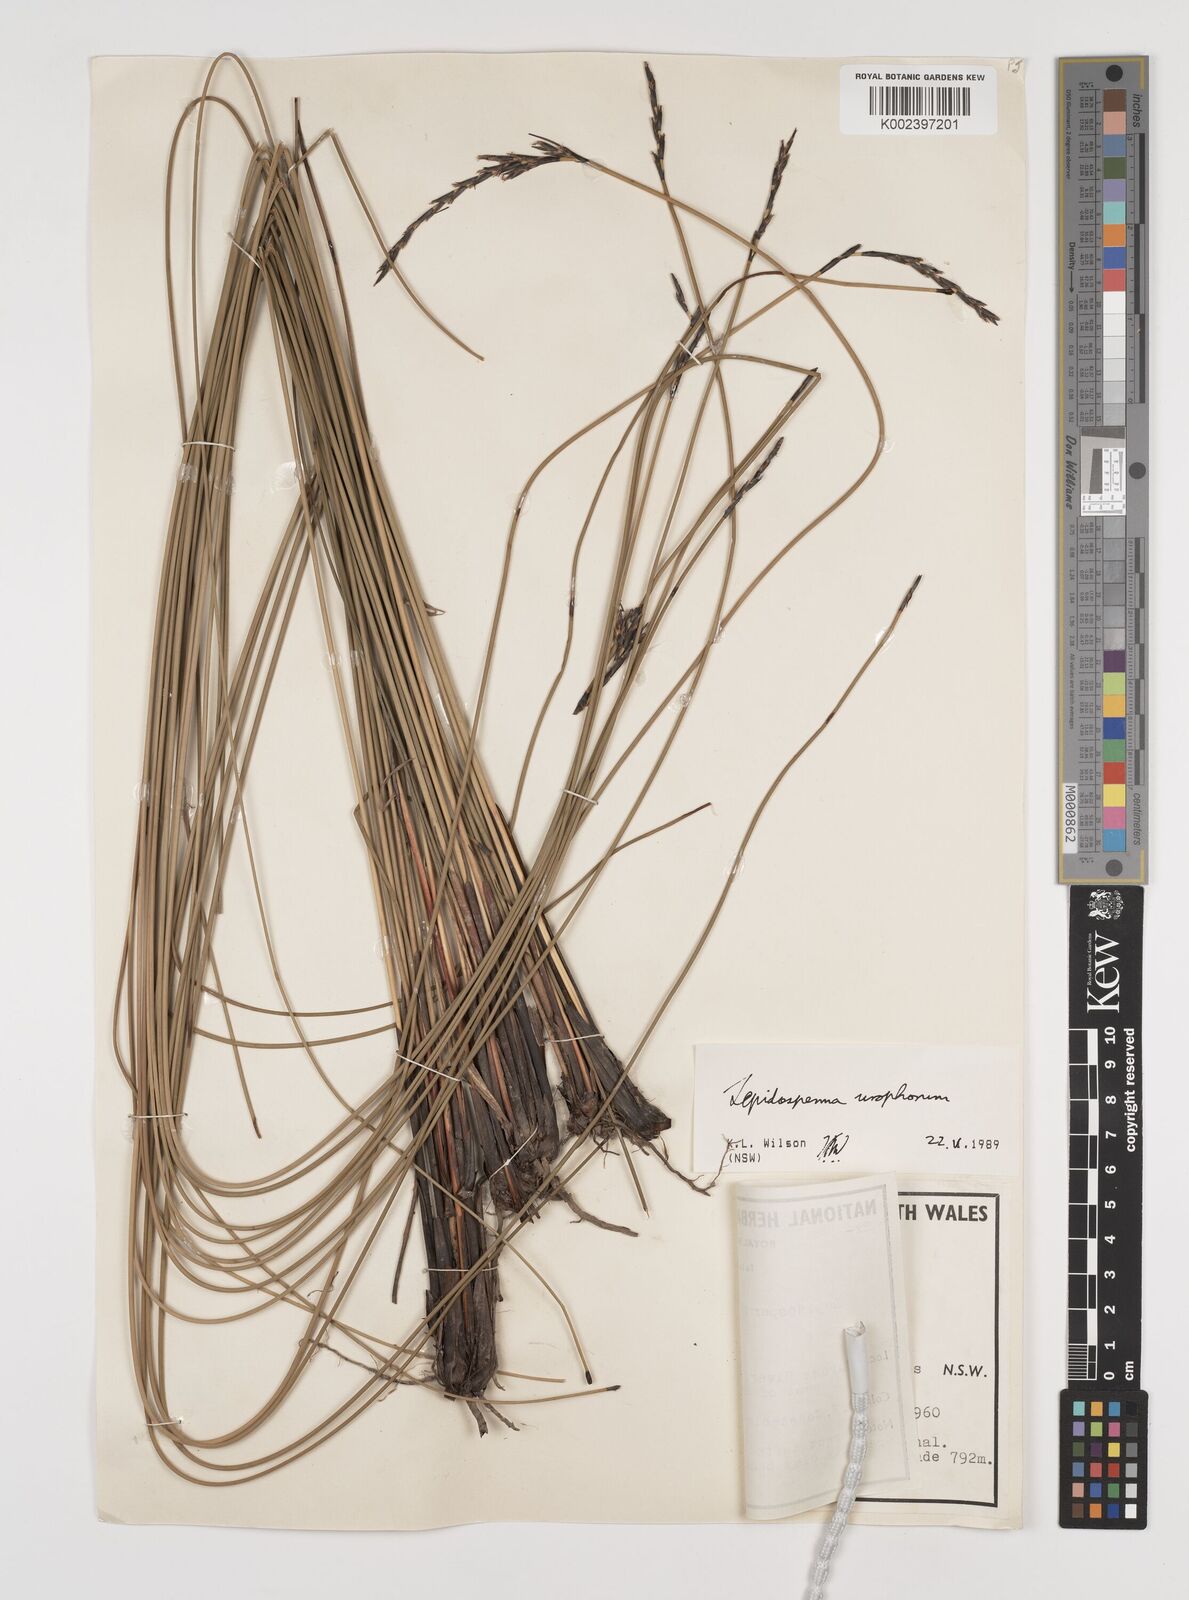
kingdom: Plantae
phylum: Tracheophyta
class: Liliopsida
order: Poales
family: Cyperaceae
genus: Lepidosperma
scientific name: Lepidosperma urophorum
